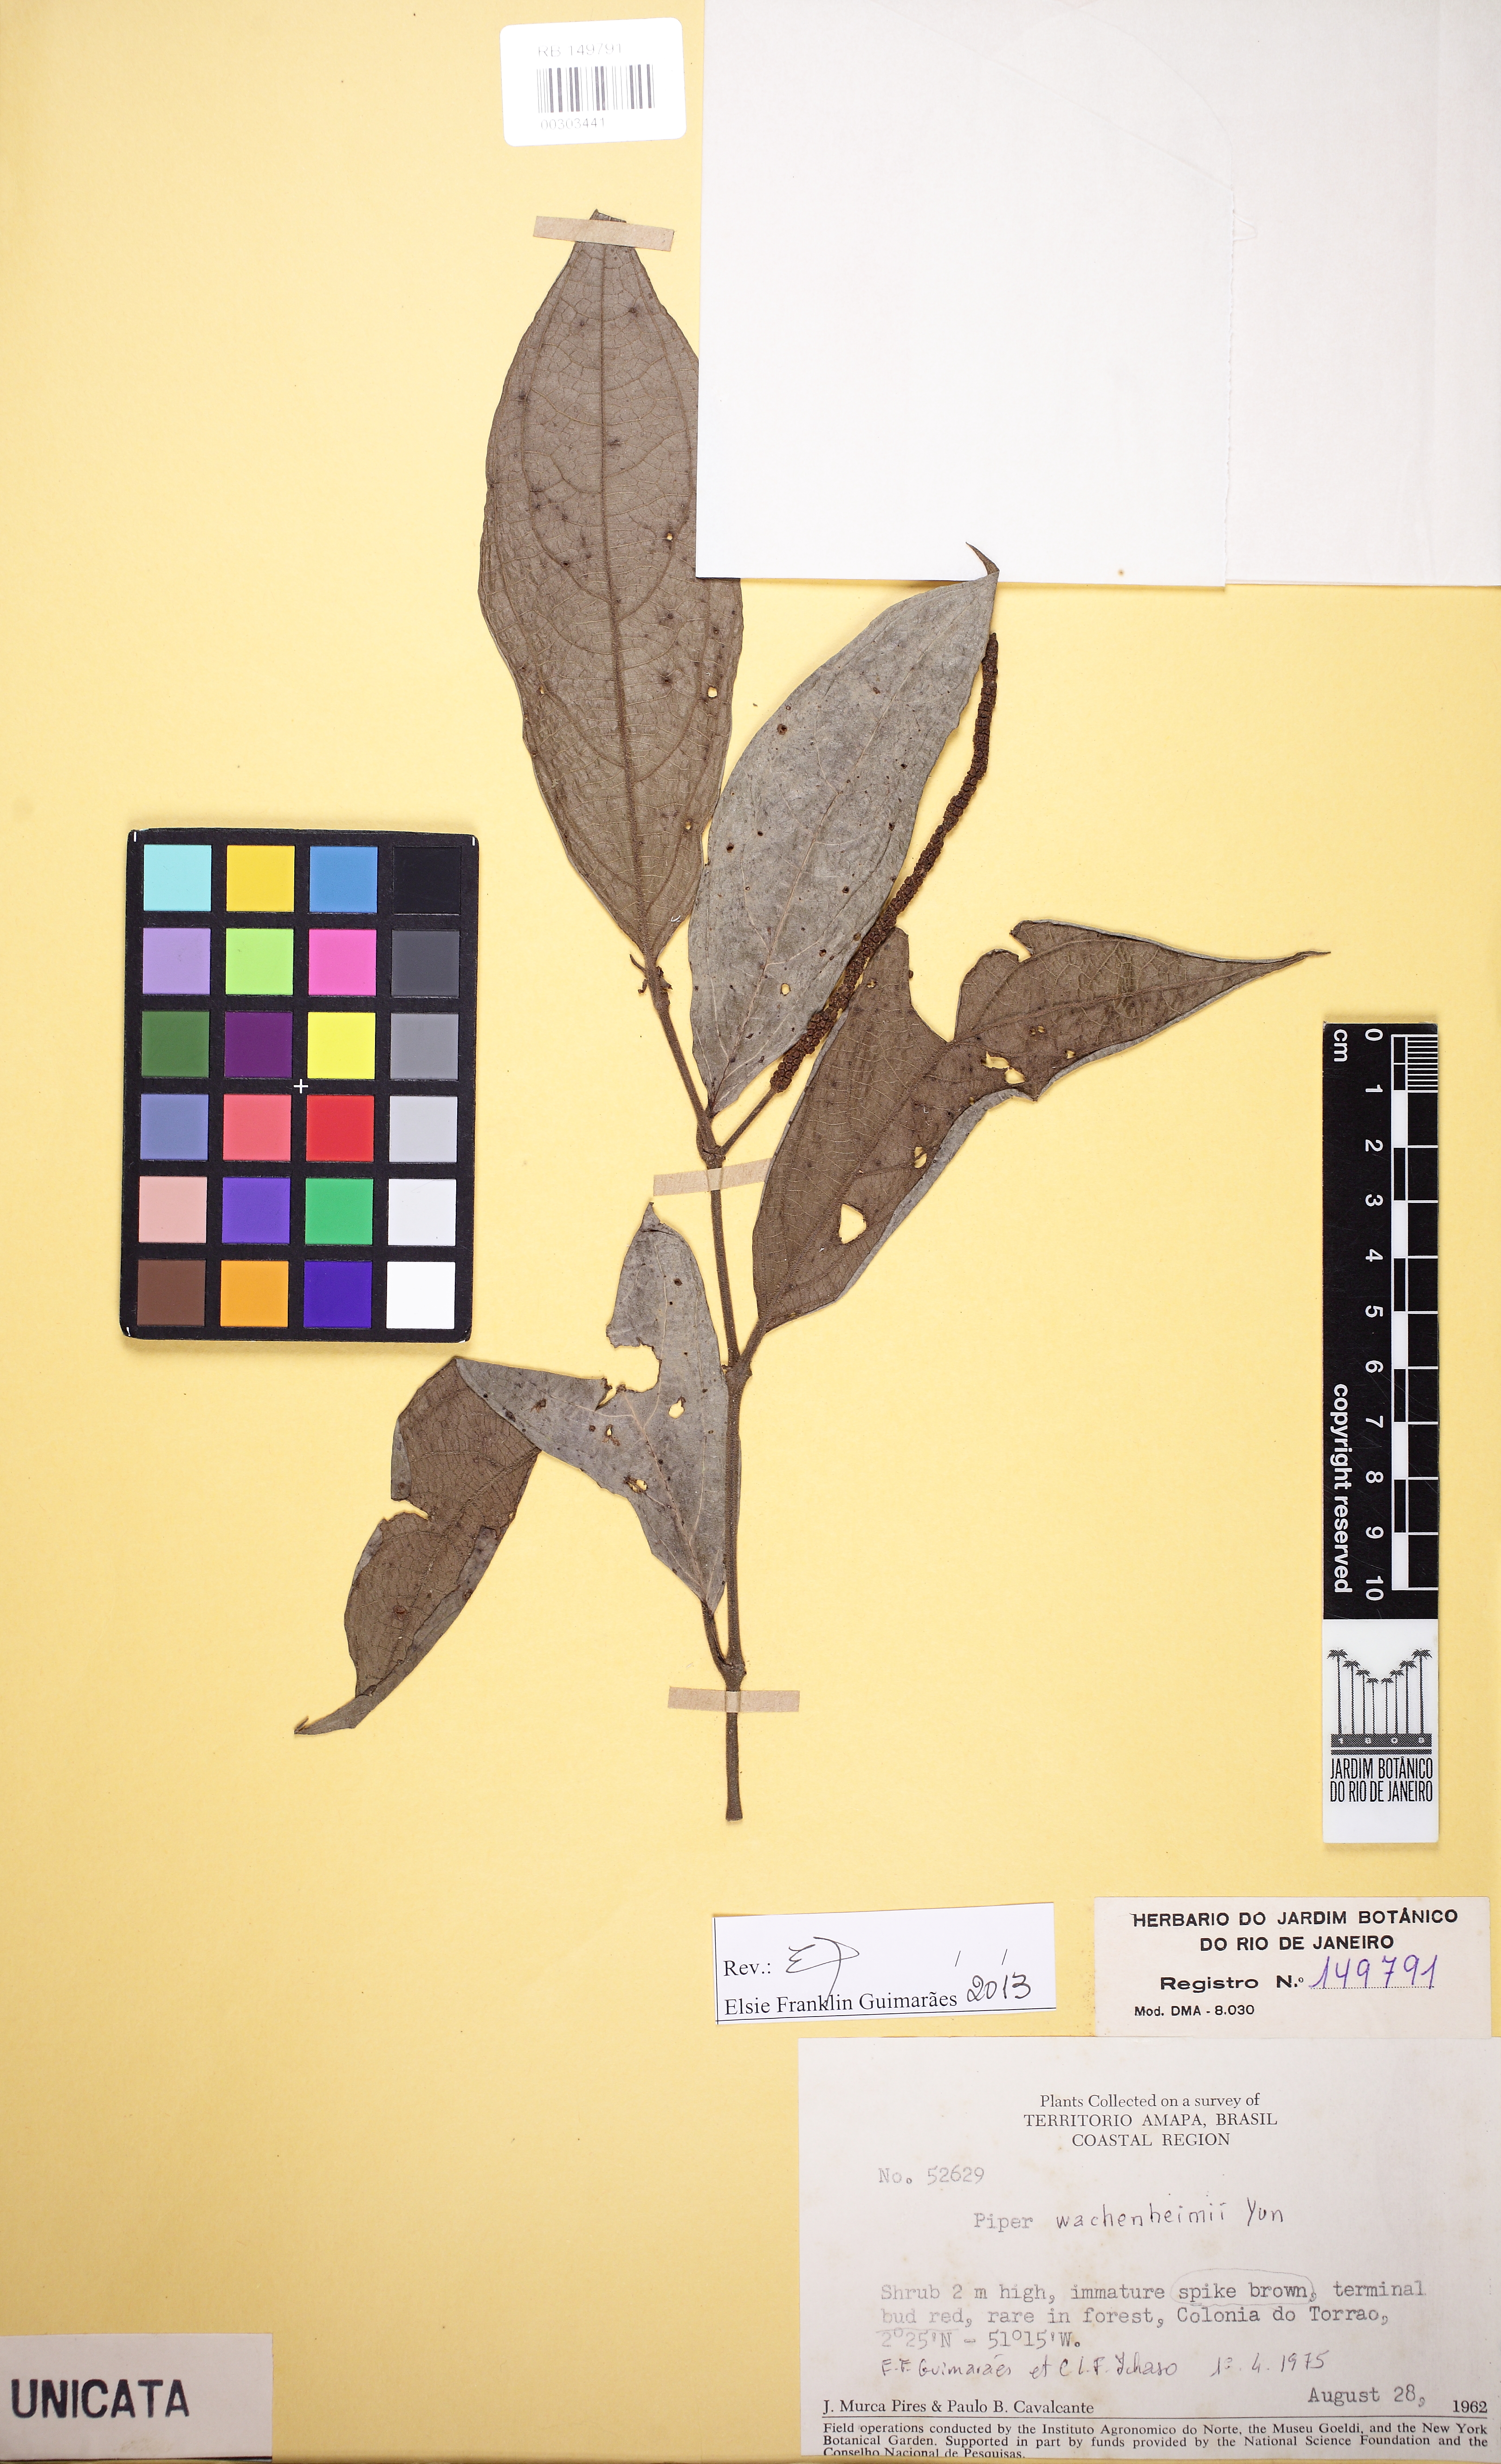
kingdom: Plantae
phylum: Tracheophyta
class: Magnoliopsida
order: Piperales
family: Piperaceae
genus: Piper
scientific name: Piper wachenheimii
